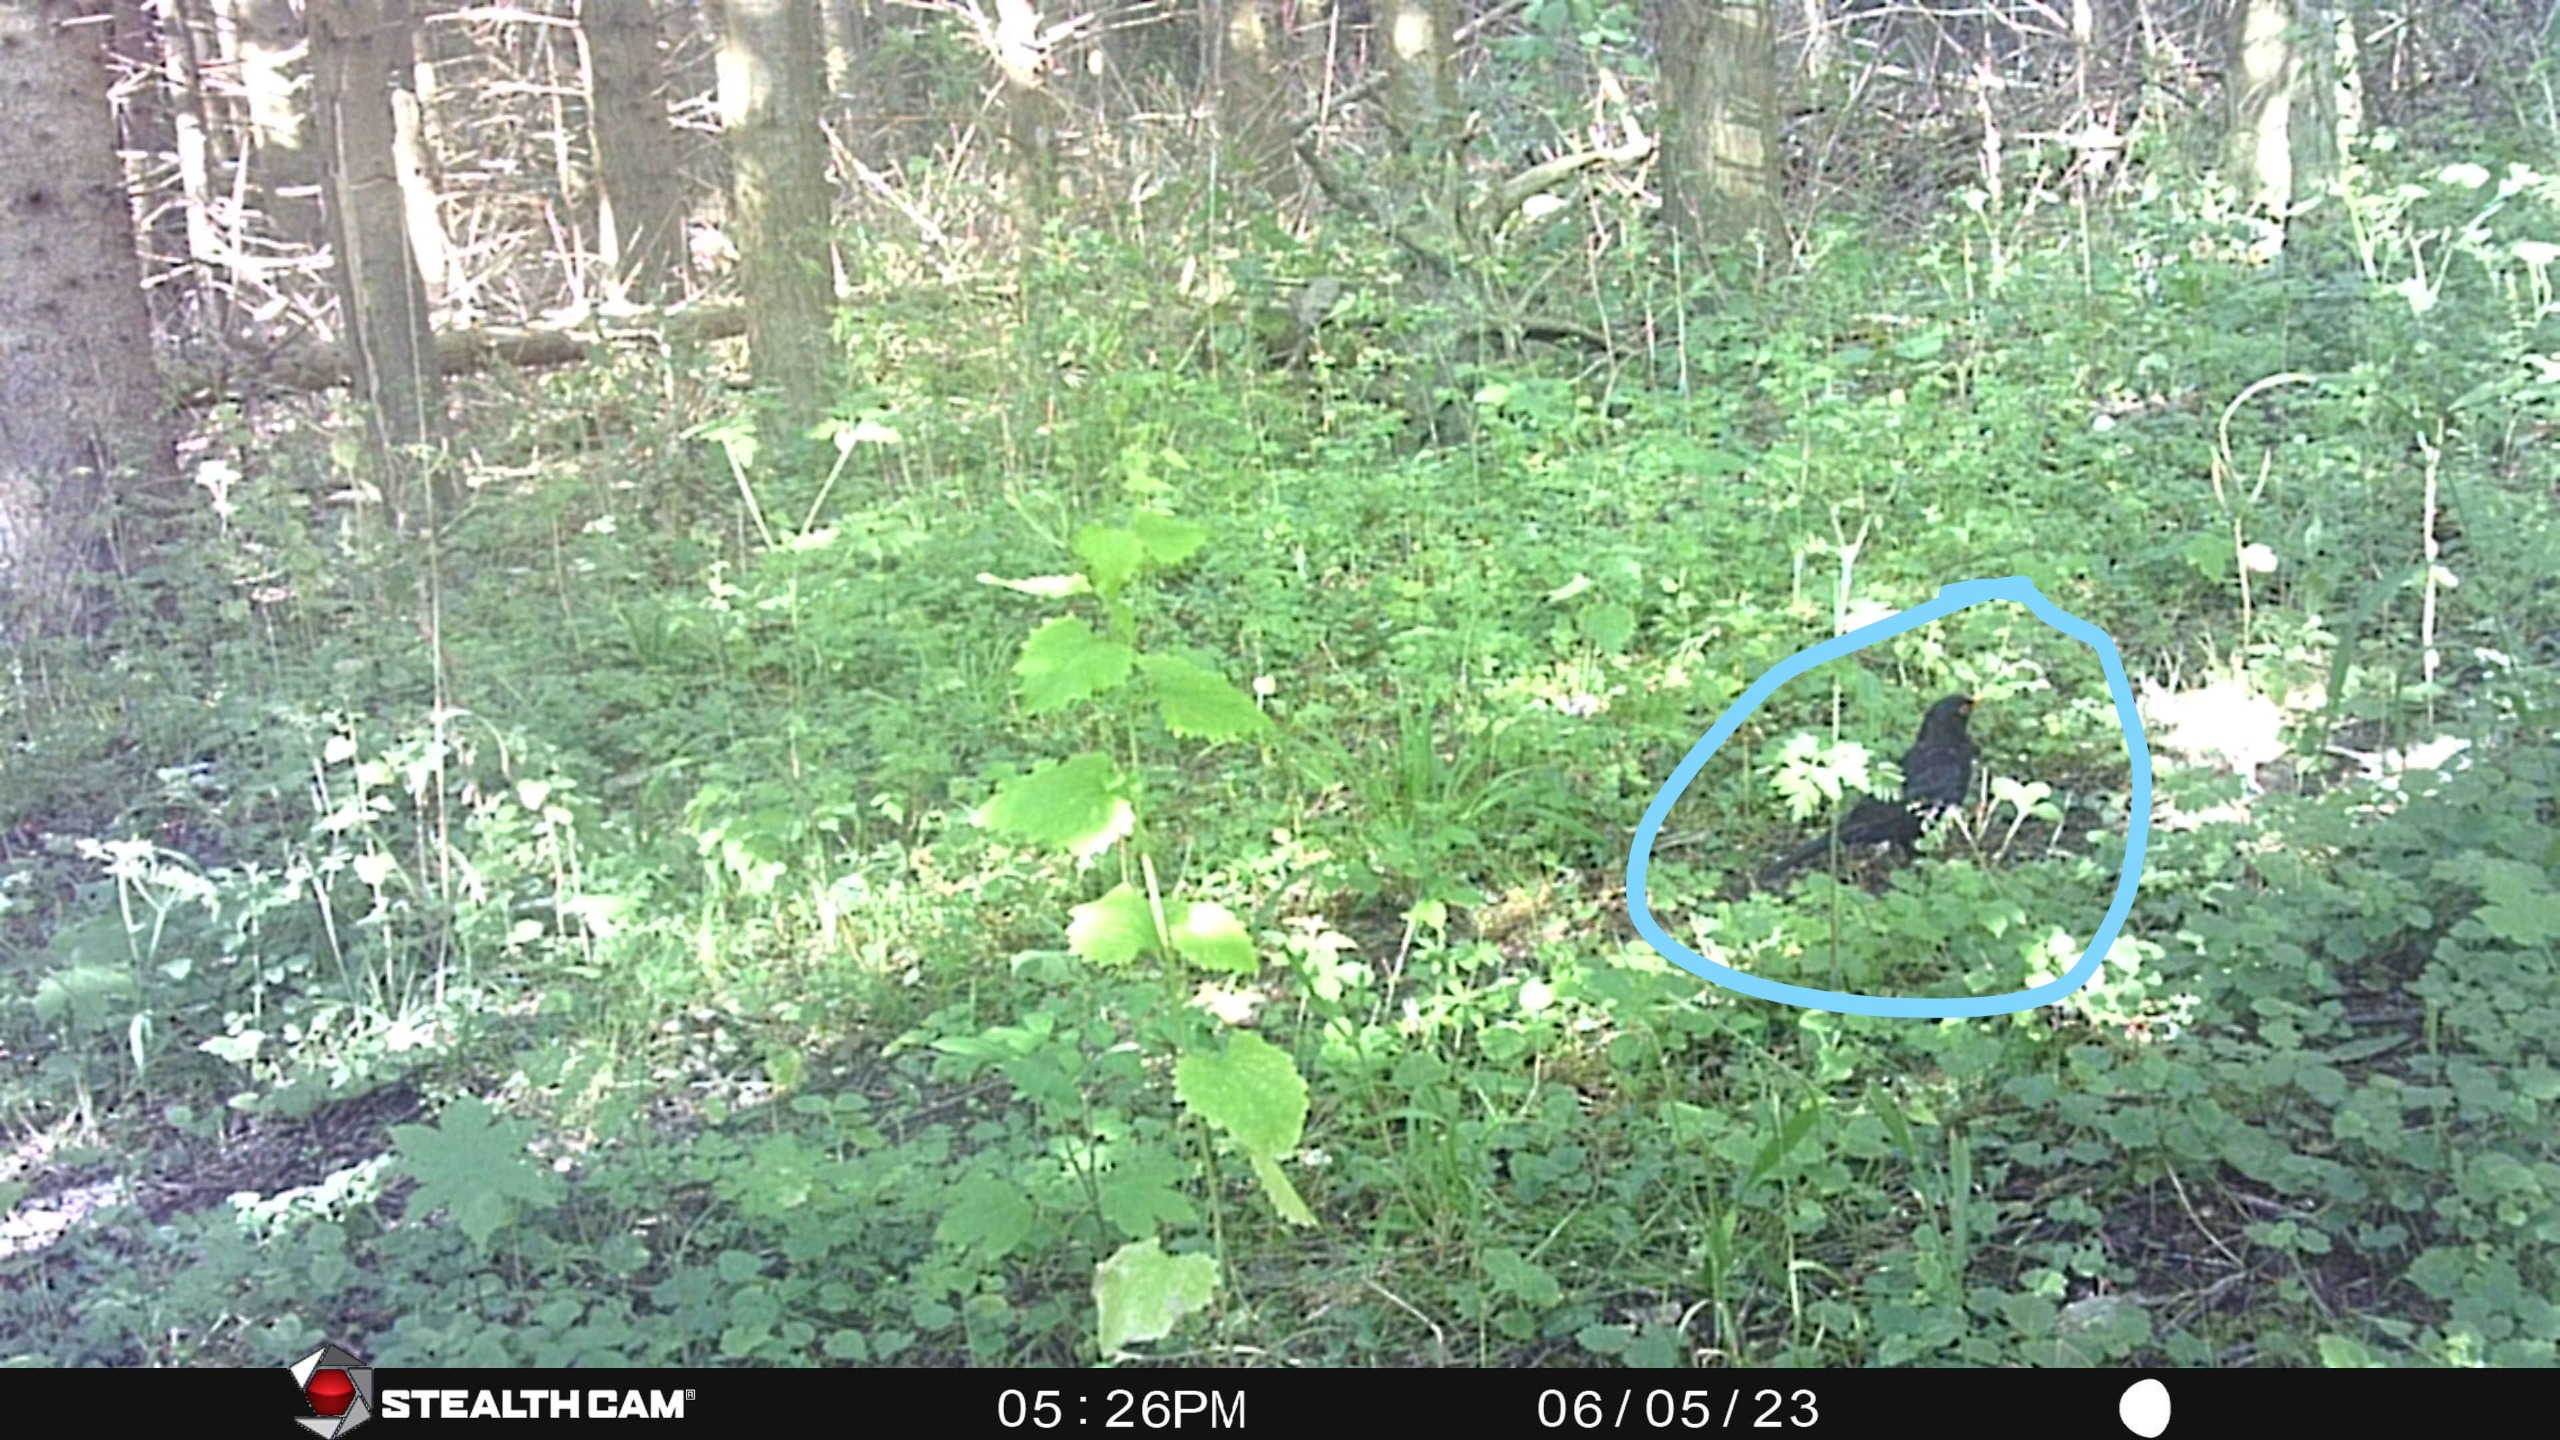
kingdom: Animalia
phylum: Chordata
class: Aves
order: Passeriformes
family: Turdidae
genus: Turdus
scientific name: Turdus merula
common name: Solsort
